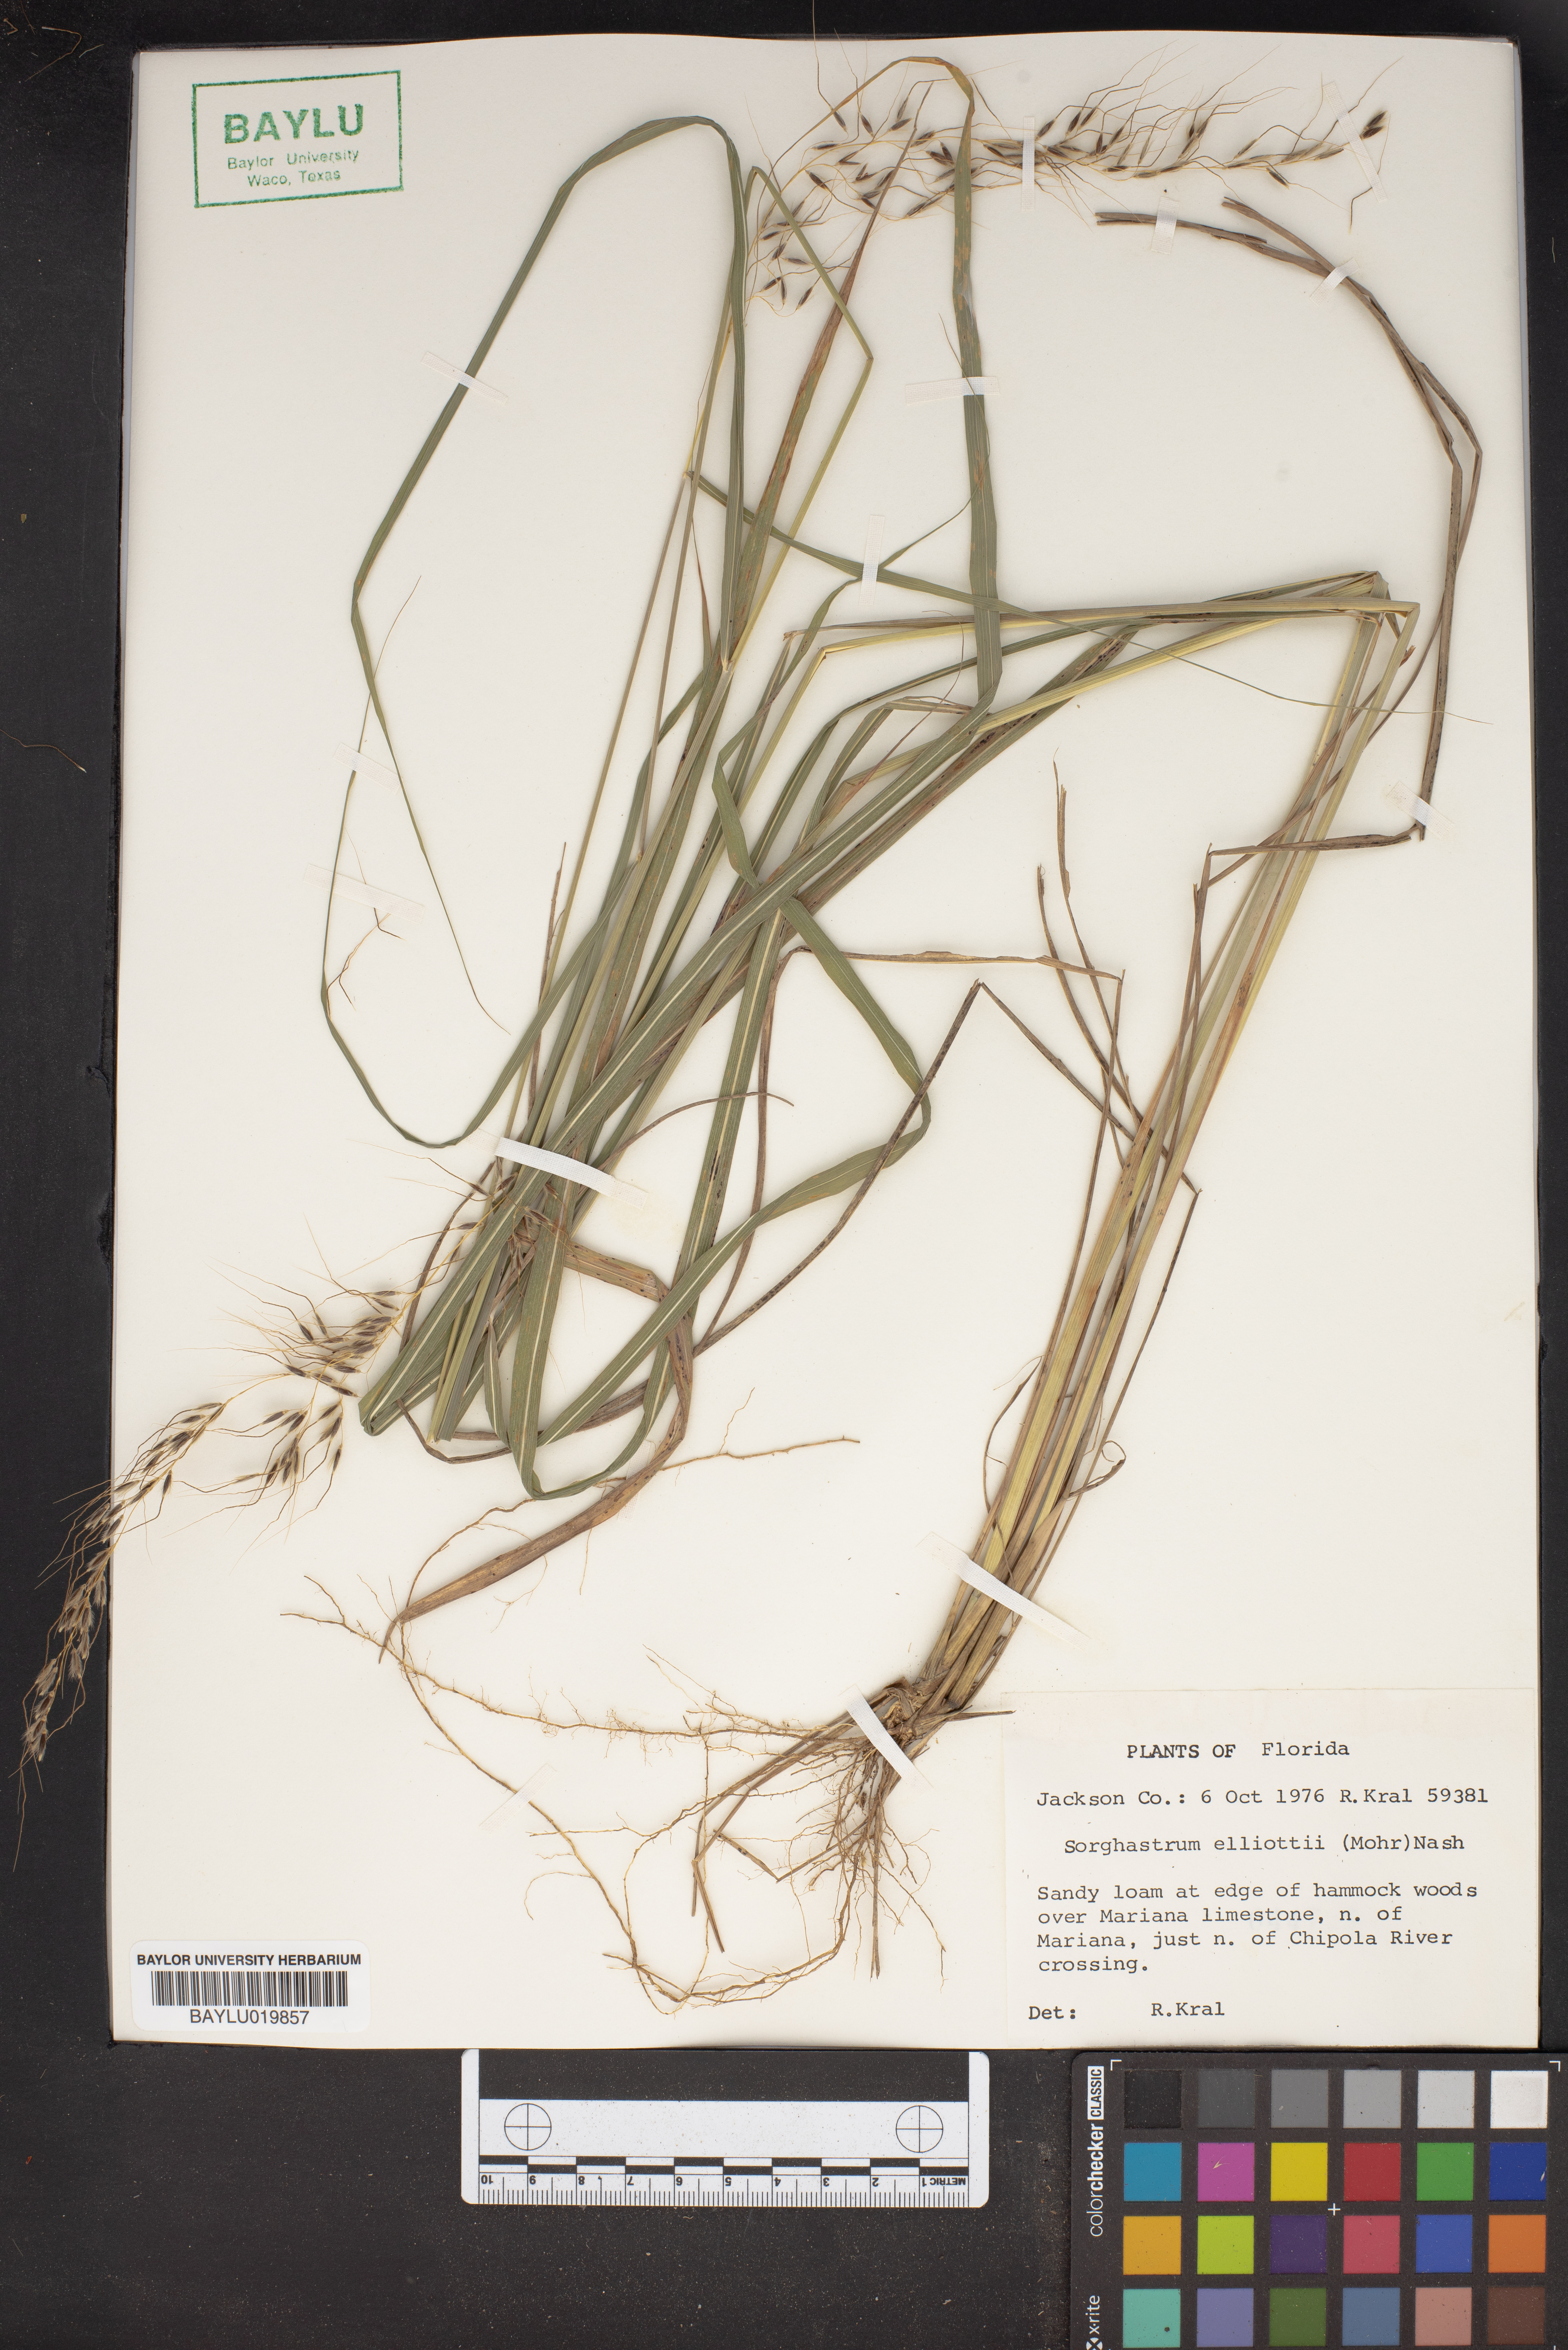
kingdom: Plantae
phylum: Tracheophyta
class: Liliopsida
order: Poales
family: Poaceae
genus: Sorghastrum
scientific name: Sorghastrum elliottii
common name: Slender indian grass
